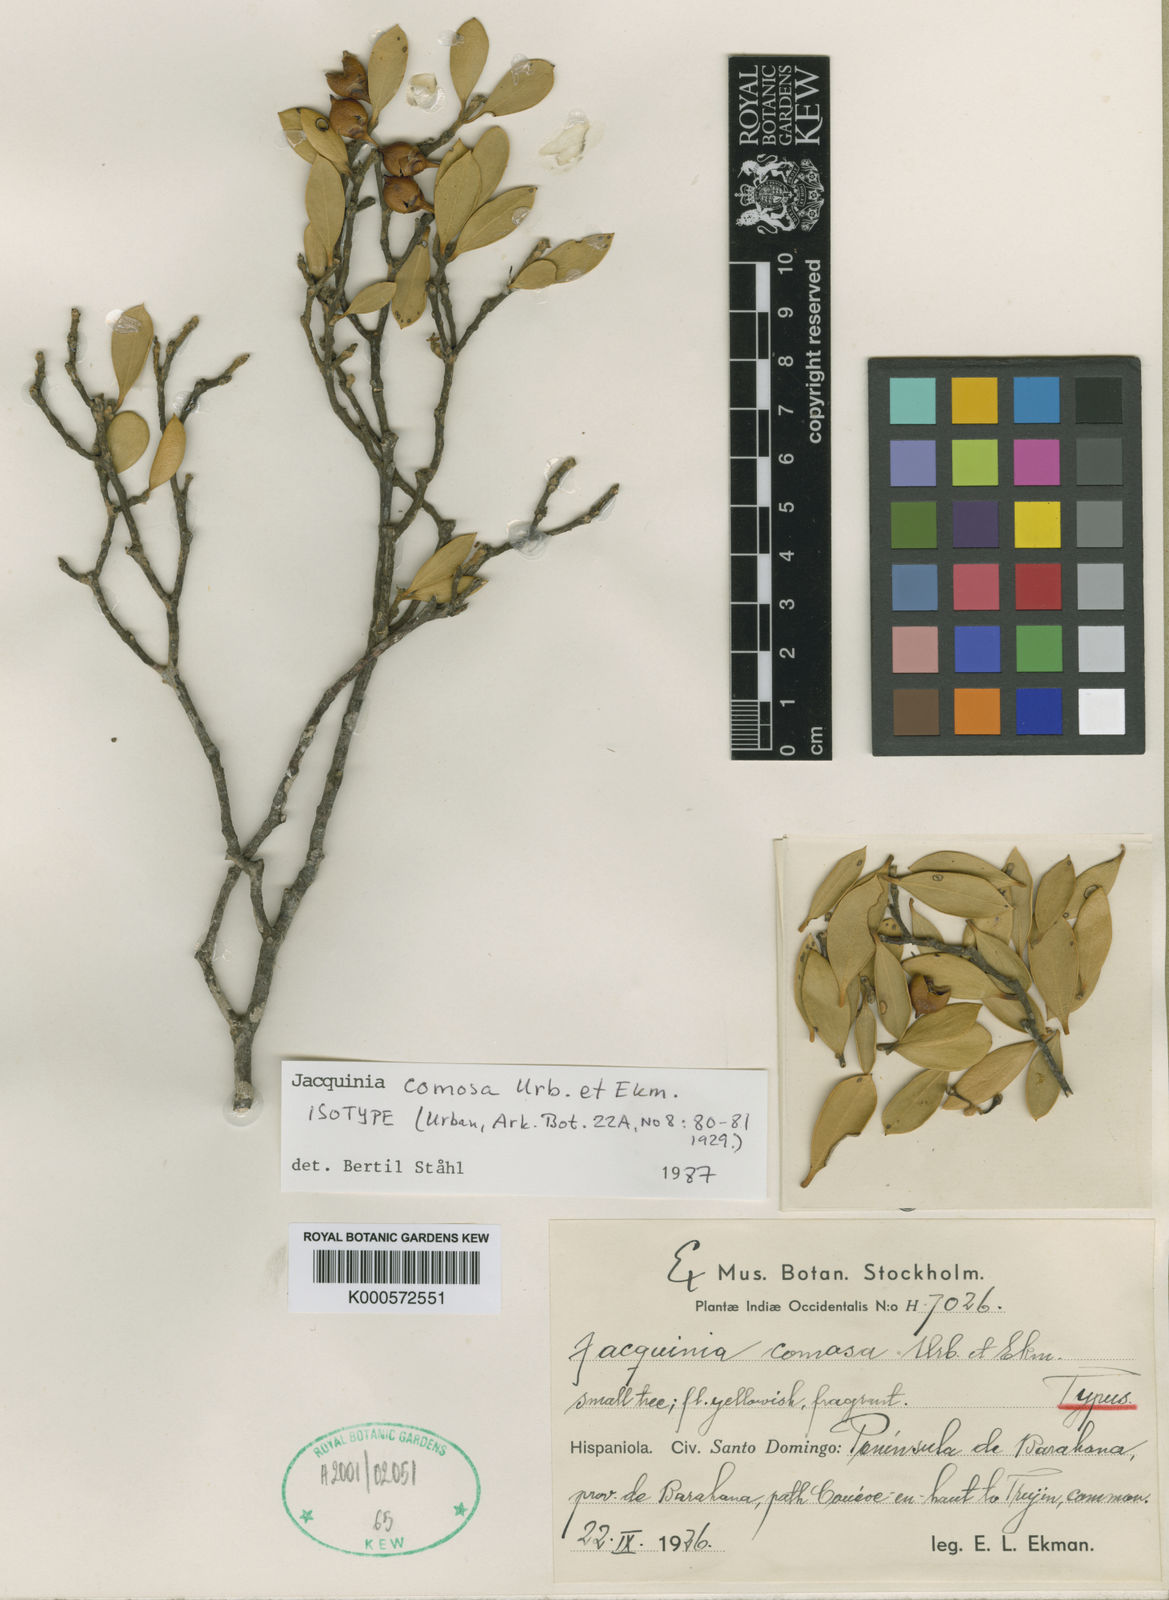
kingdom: Plantae
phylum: Tracheophyta
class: Magnoliopsida
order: Ericales
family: Primulaceae
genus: Jacquinia
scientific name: Jacquinia comosa
